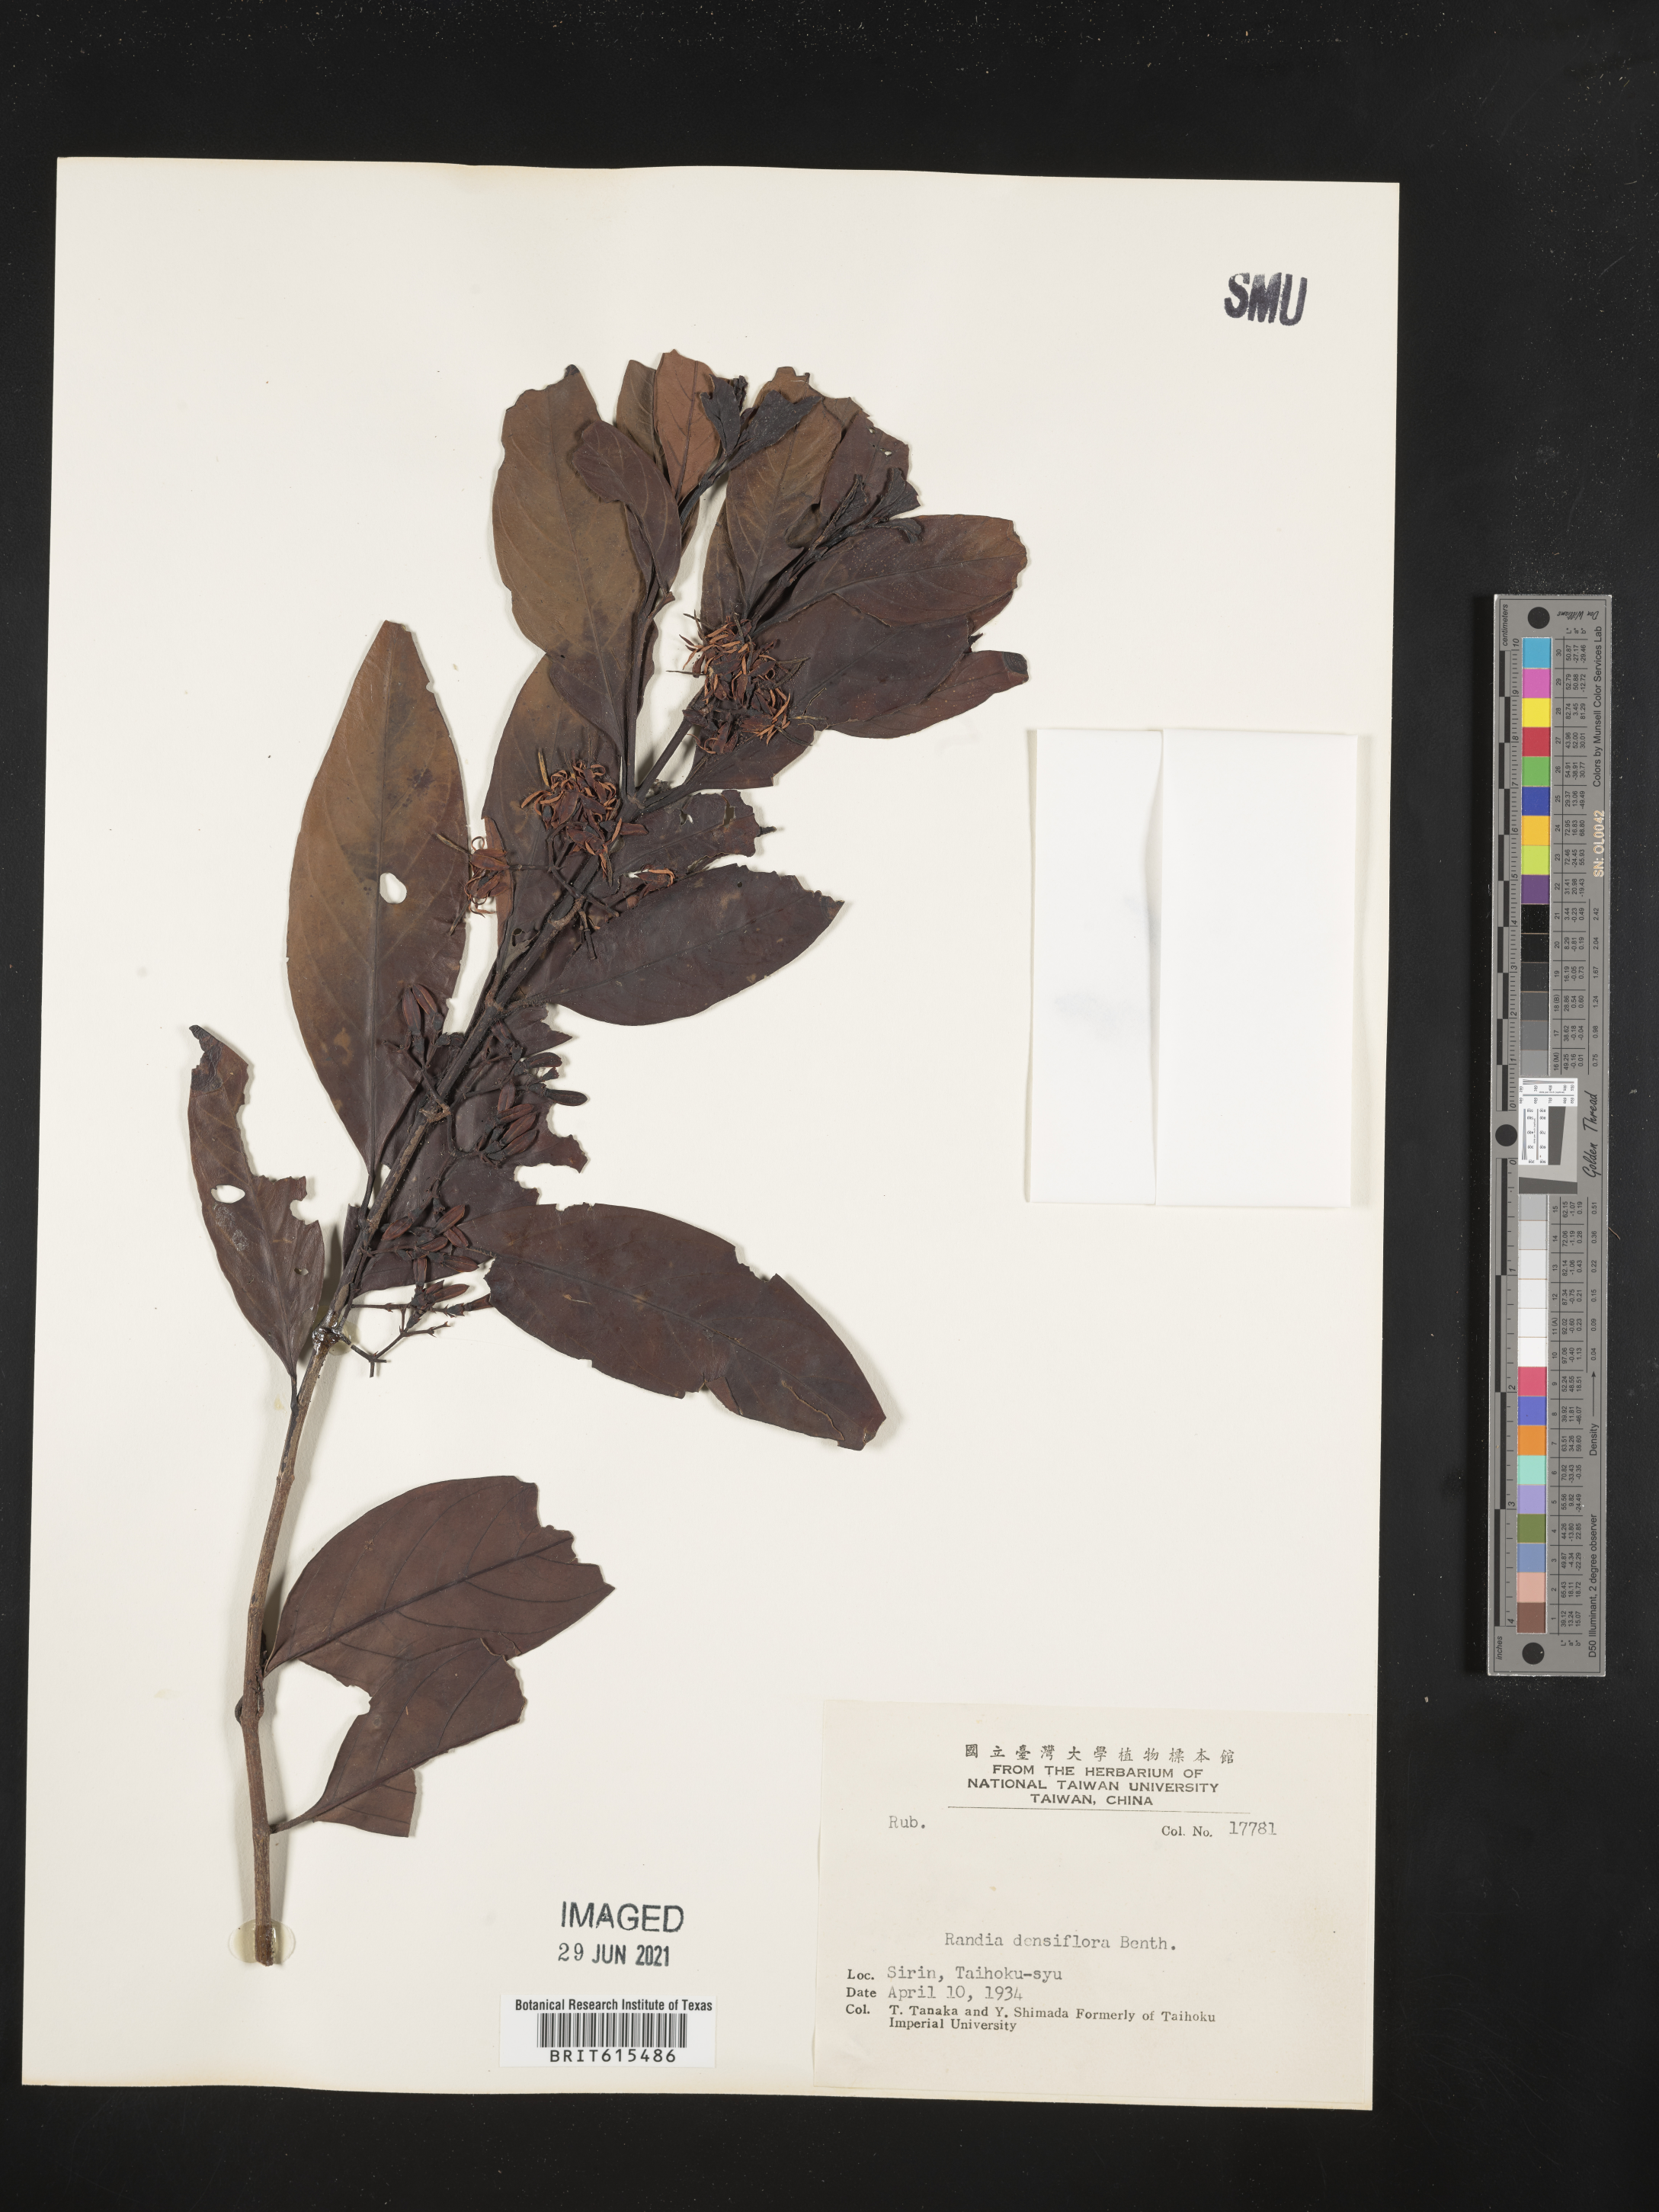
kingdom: Plantae
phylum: Tracheophyta
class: Magnoliopsida
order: Gentianales
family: Rubiaceae
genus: Aidia
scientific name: Aidia densiflora
